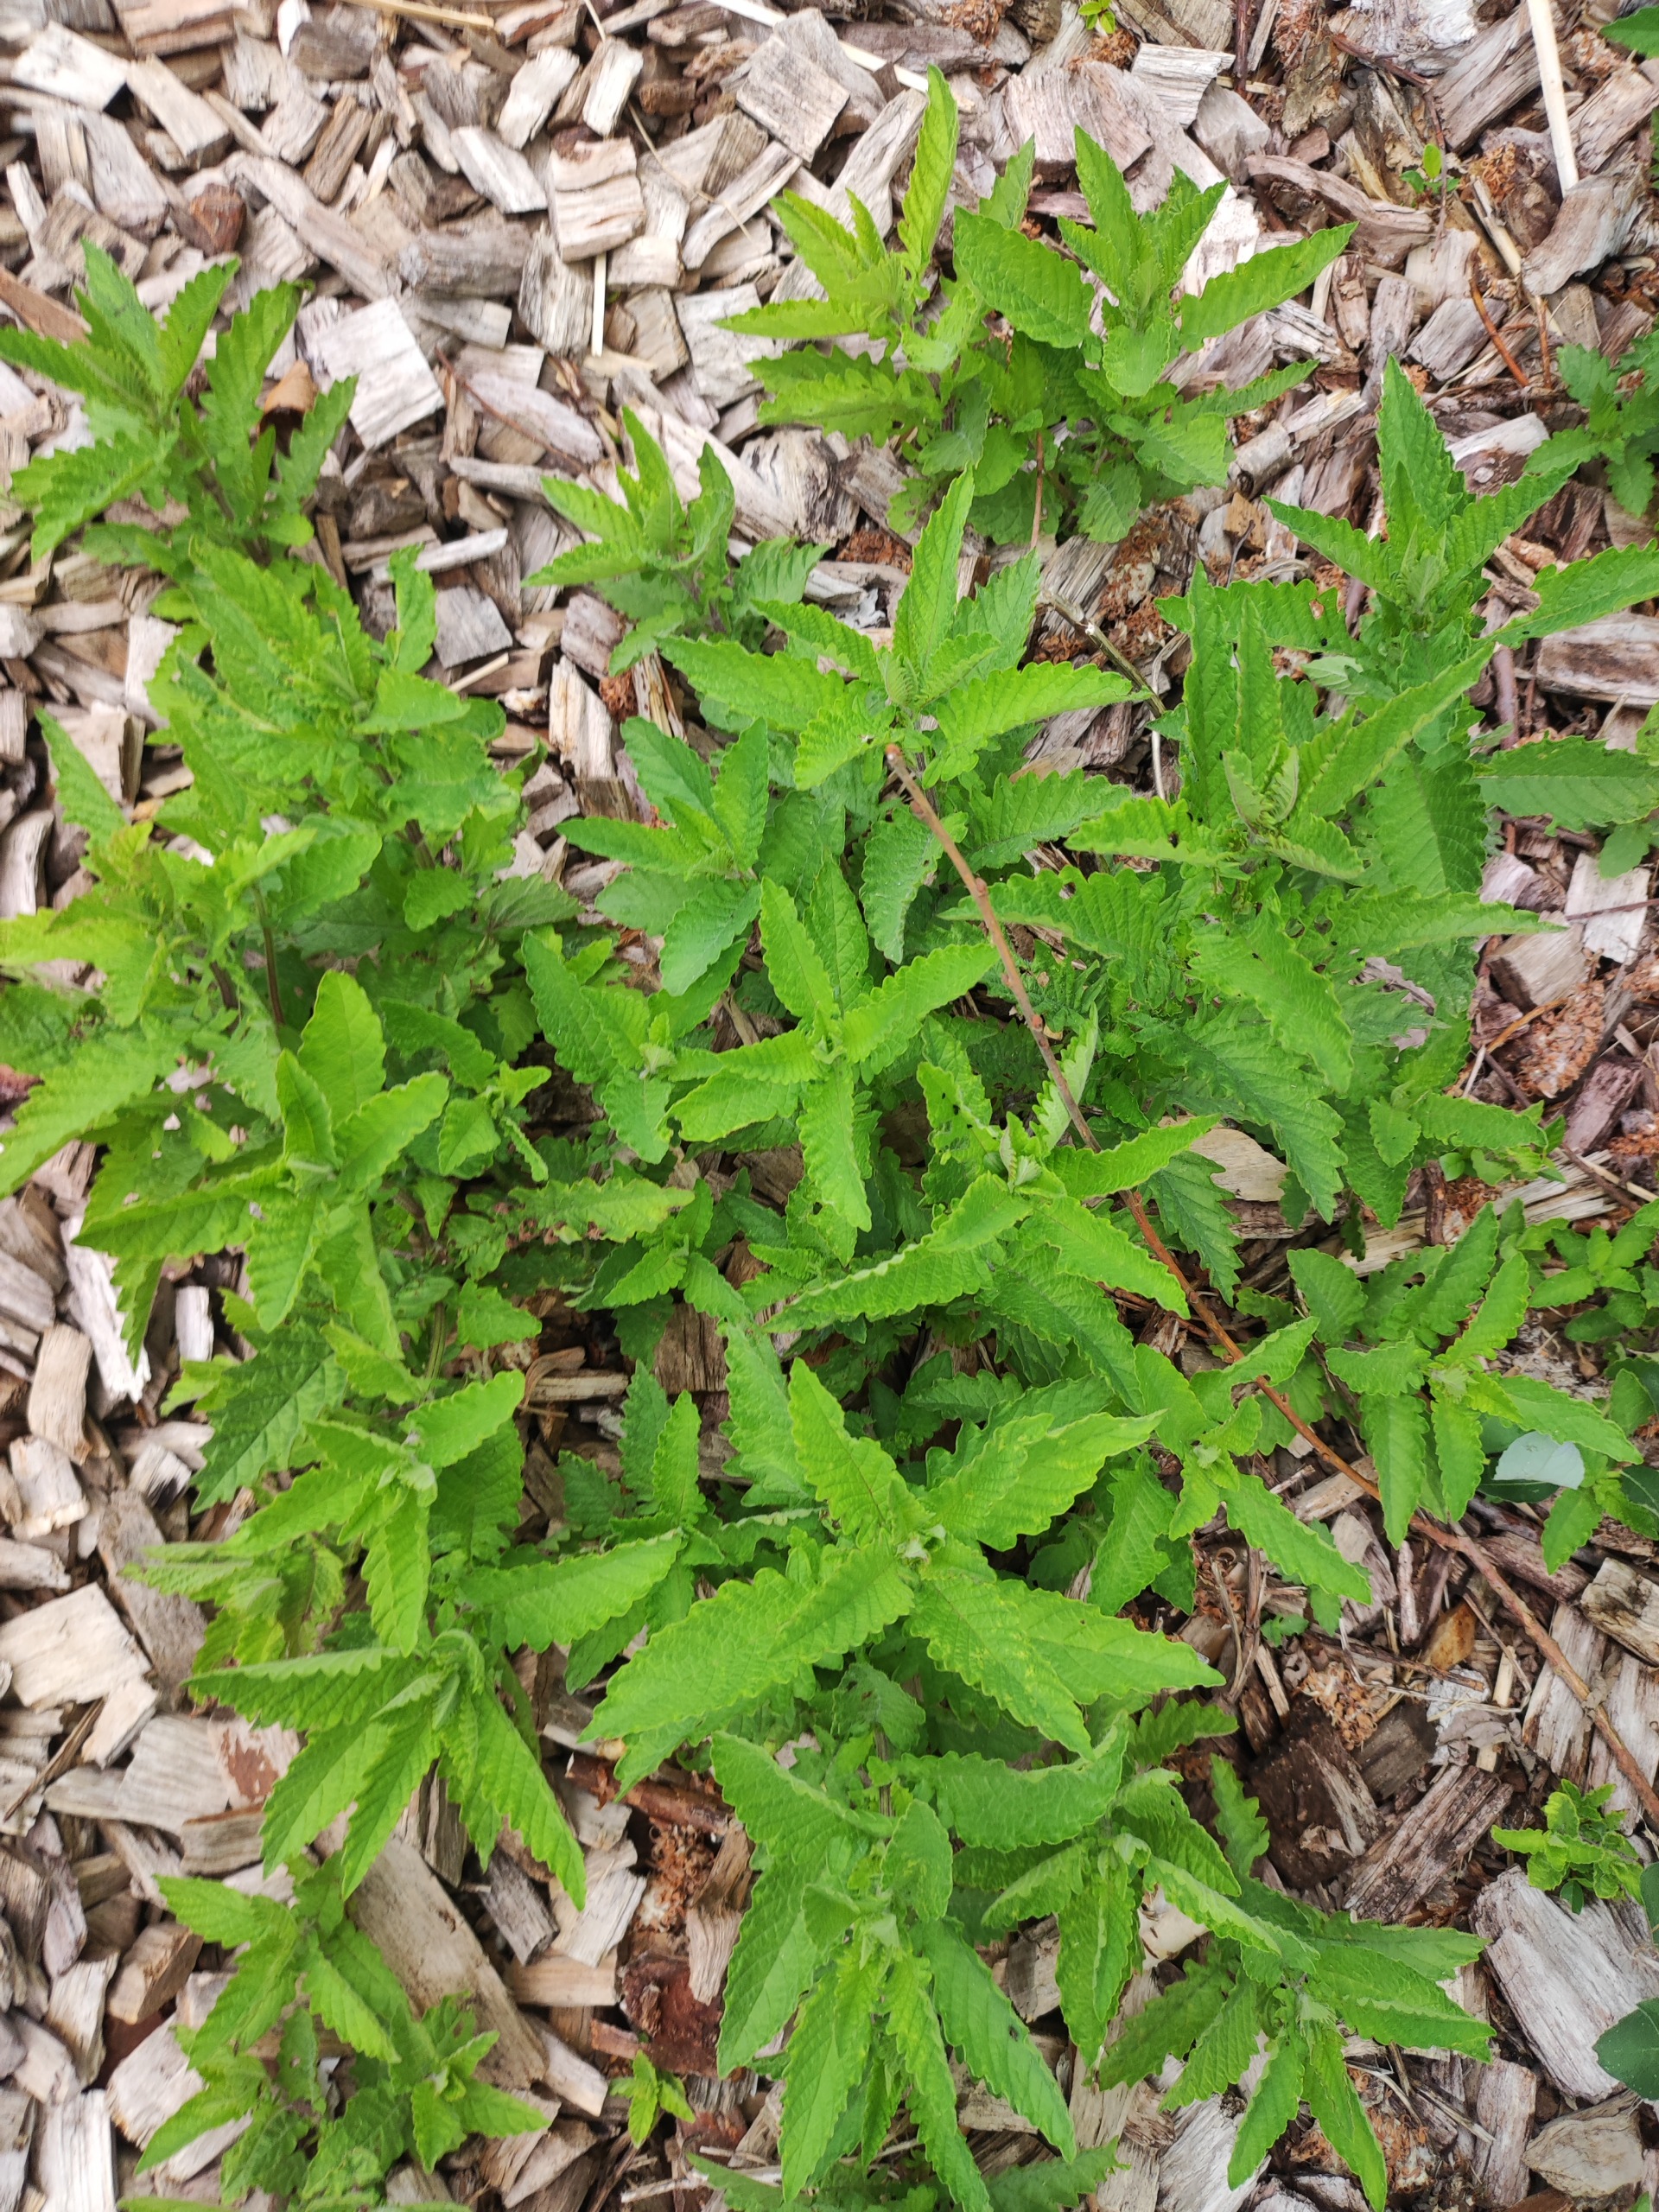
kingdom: Plantae
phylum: Tracheophyta
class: Magnoliopsida
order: Lamiales
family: Lamiaceae
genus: Lycopus
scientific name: Lycopus europaeus
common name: Sværtevæld
